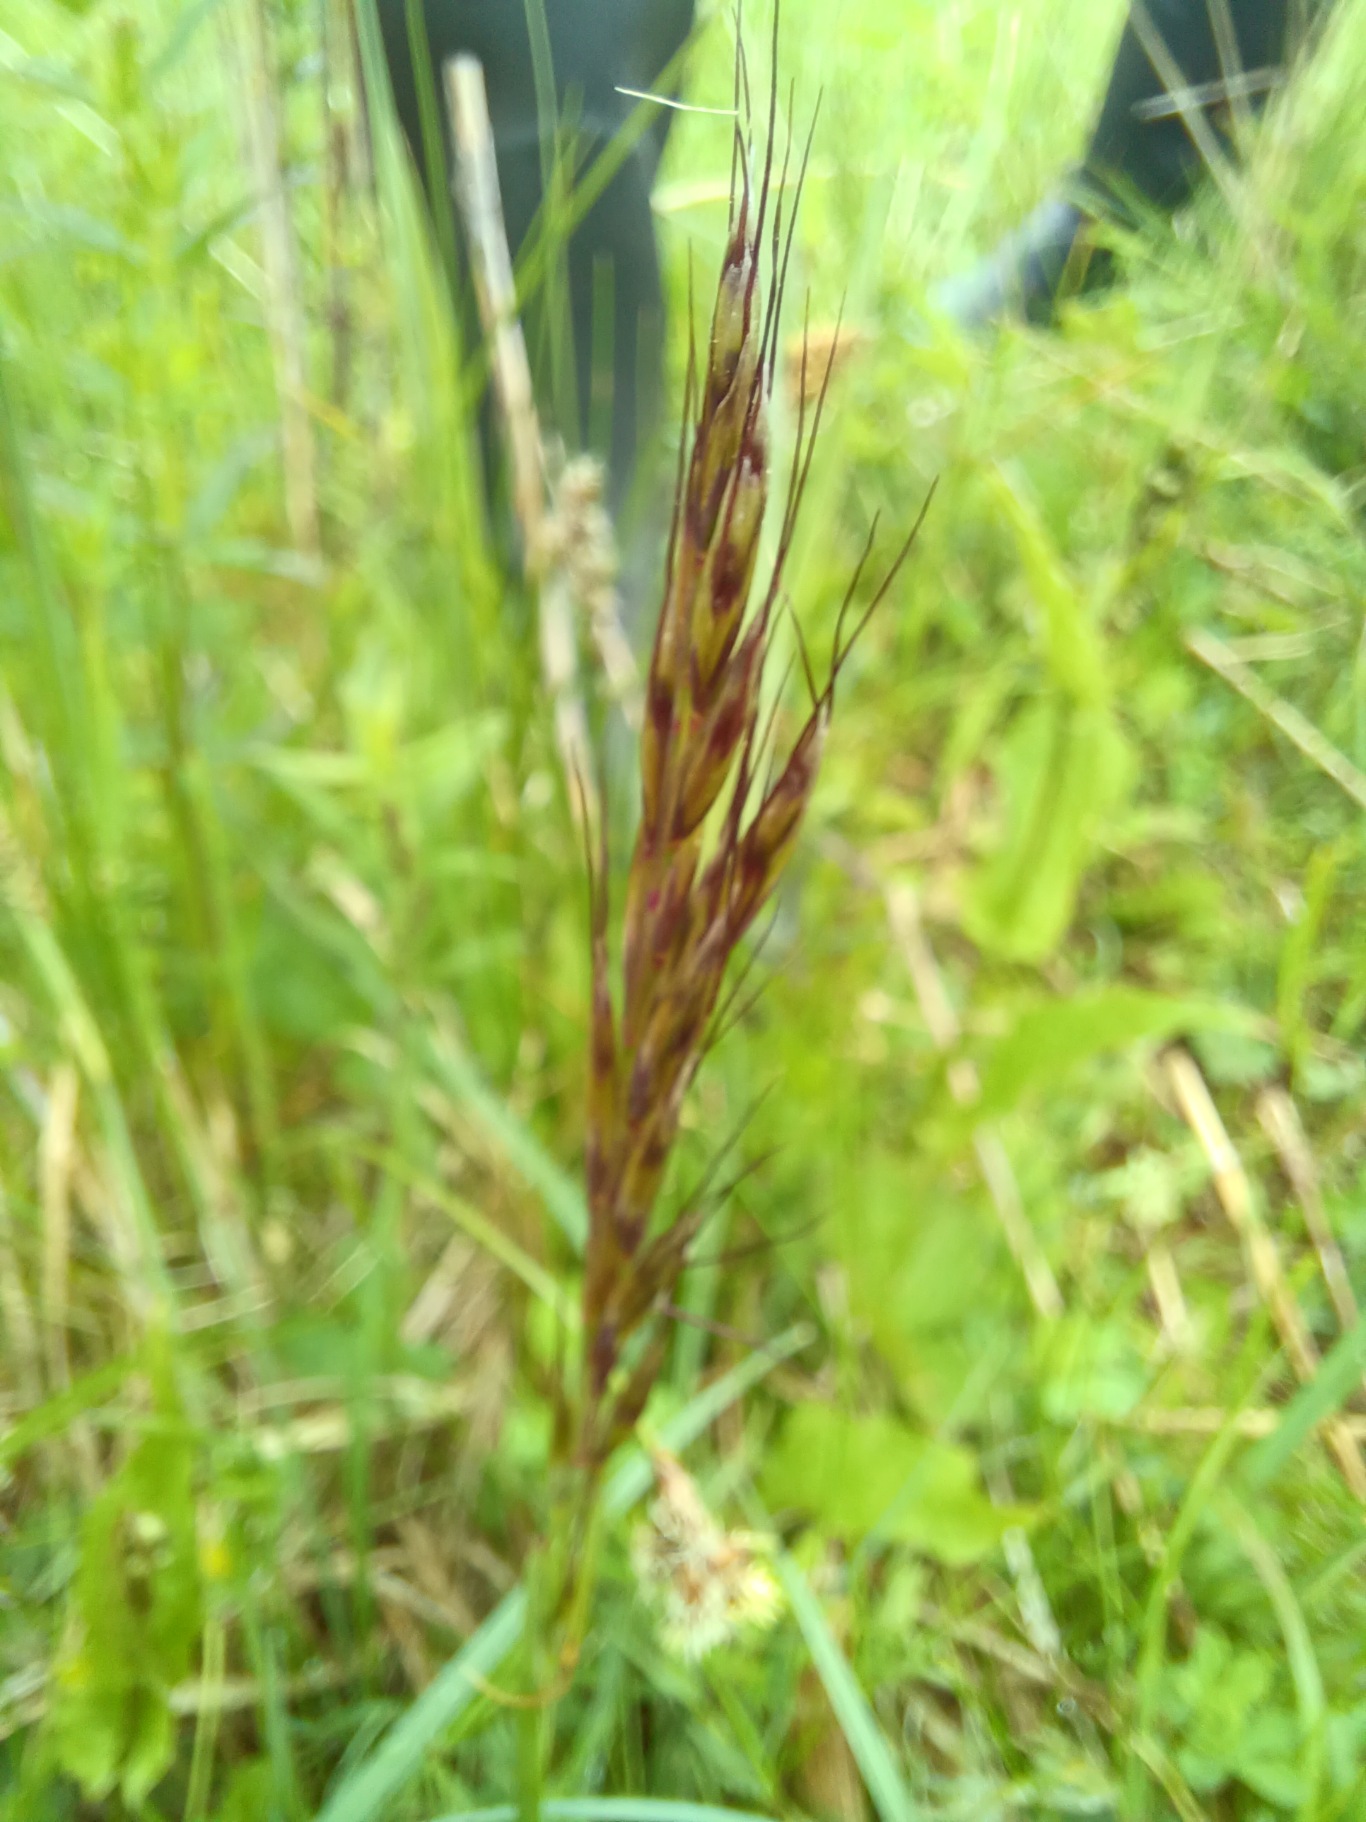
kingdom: Plantae
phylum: Tracheophyta
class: Liliopsida
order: Poales
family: Poaceae
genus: Avenula
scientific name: Avenula pubescens
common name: Dunet havre
